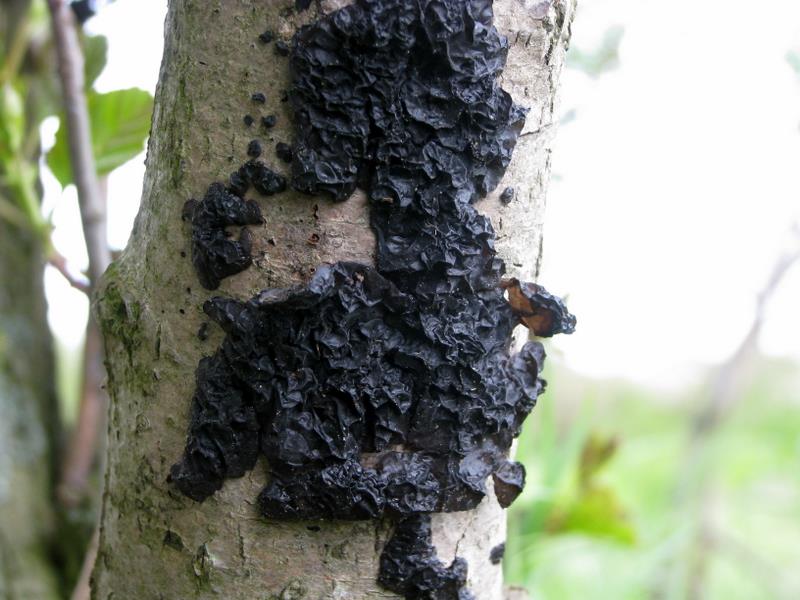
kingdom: Fungi
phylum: Basidiomycota
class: Agaricomycetes
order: Auriculariales
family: Auriculariaceae
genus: Exidia
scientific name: Exidia nigricans
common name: almindelig bævretop
